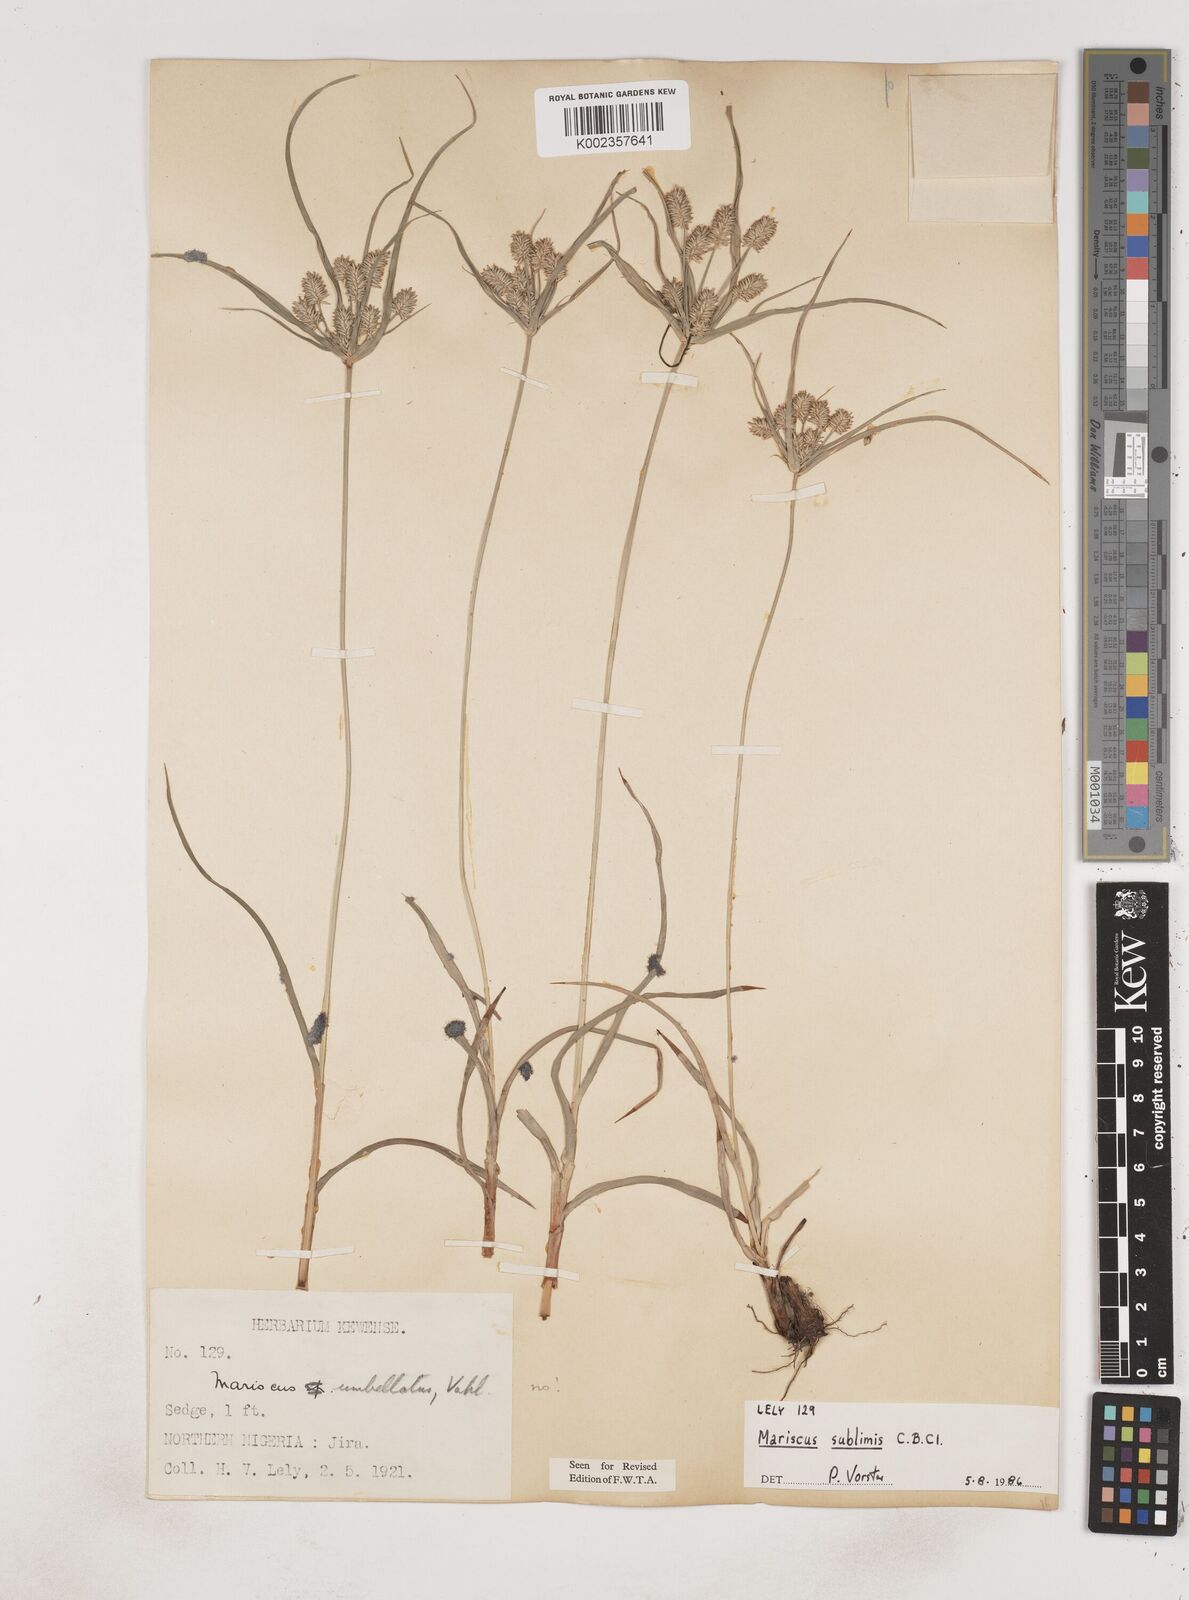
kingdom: Plantae
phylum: Tracheophyta
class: Liliopsida
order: Poales
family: Cyperaceae
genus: Cyperus
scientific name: Cyperus cyperoides
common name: Pacific island flat sedge
